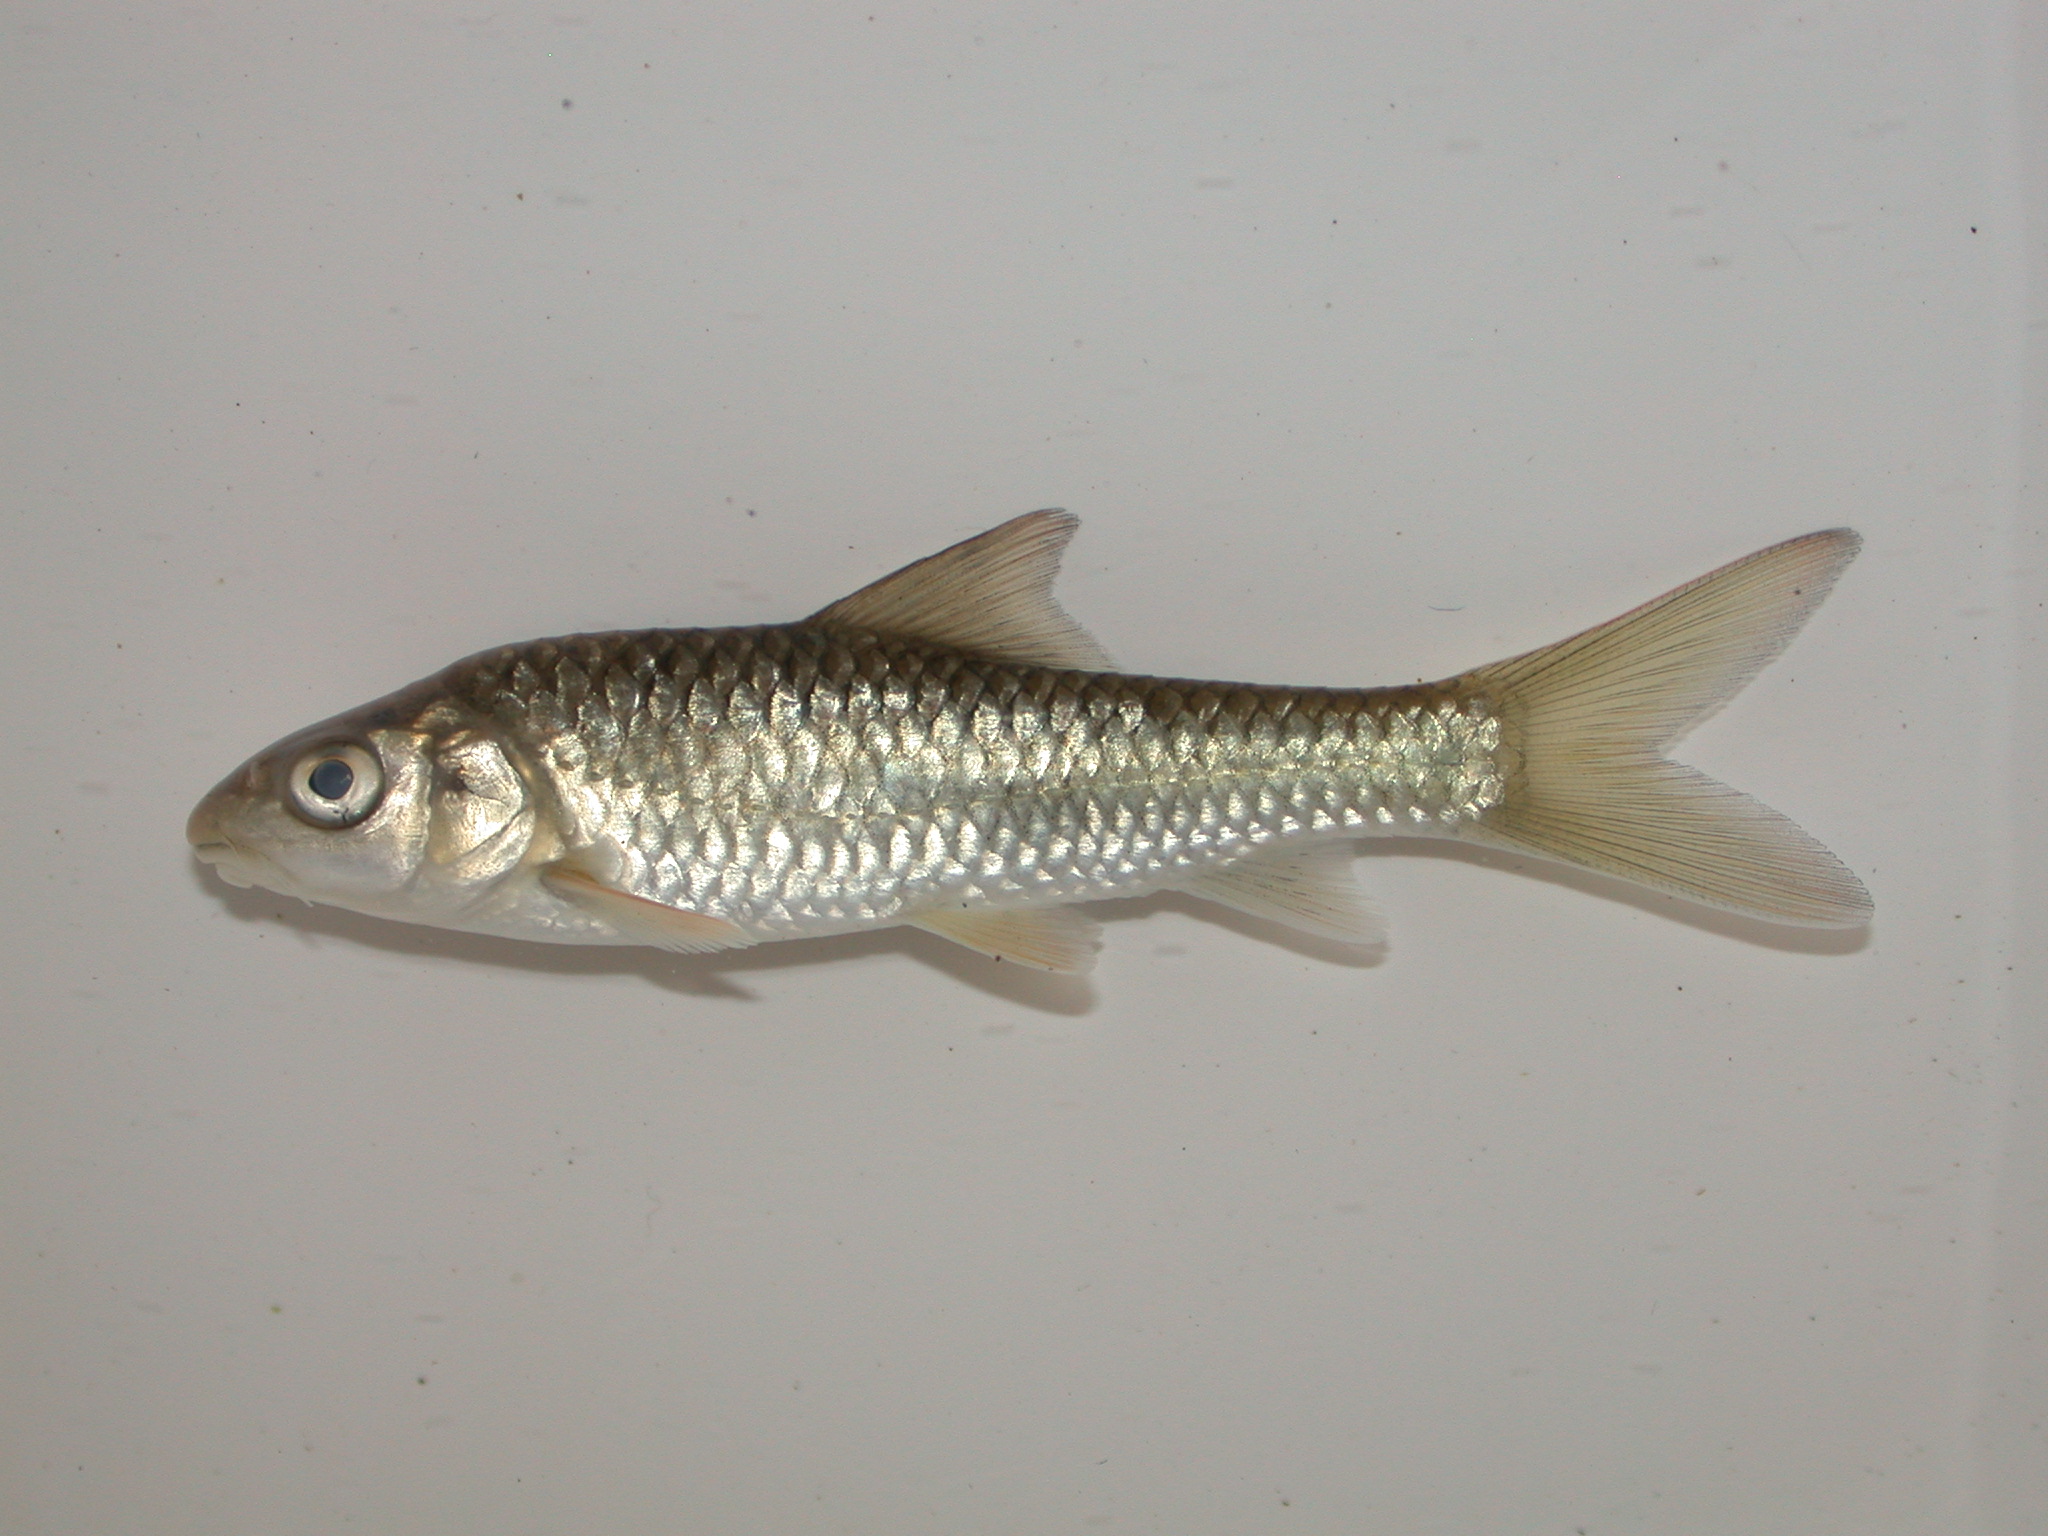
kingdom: Animalia
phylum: Chordata
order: Cypriniformes
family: Cyprinidae
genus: Labeobarbus
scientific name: Labeobarbus pungweensis
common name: Pungwe chiselmouth
